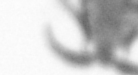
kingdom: Animalia
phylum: Annelida
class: Polychaeta
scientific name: Polychaeta
